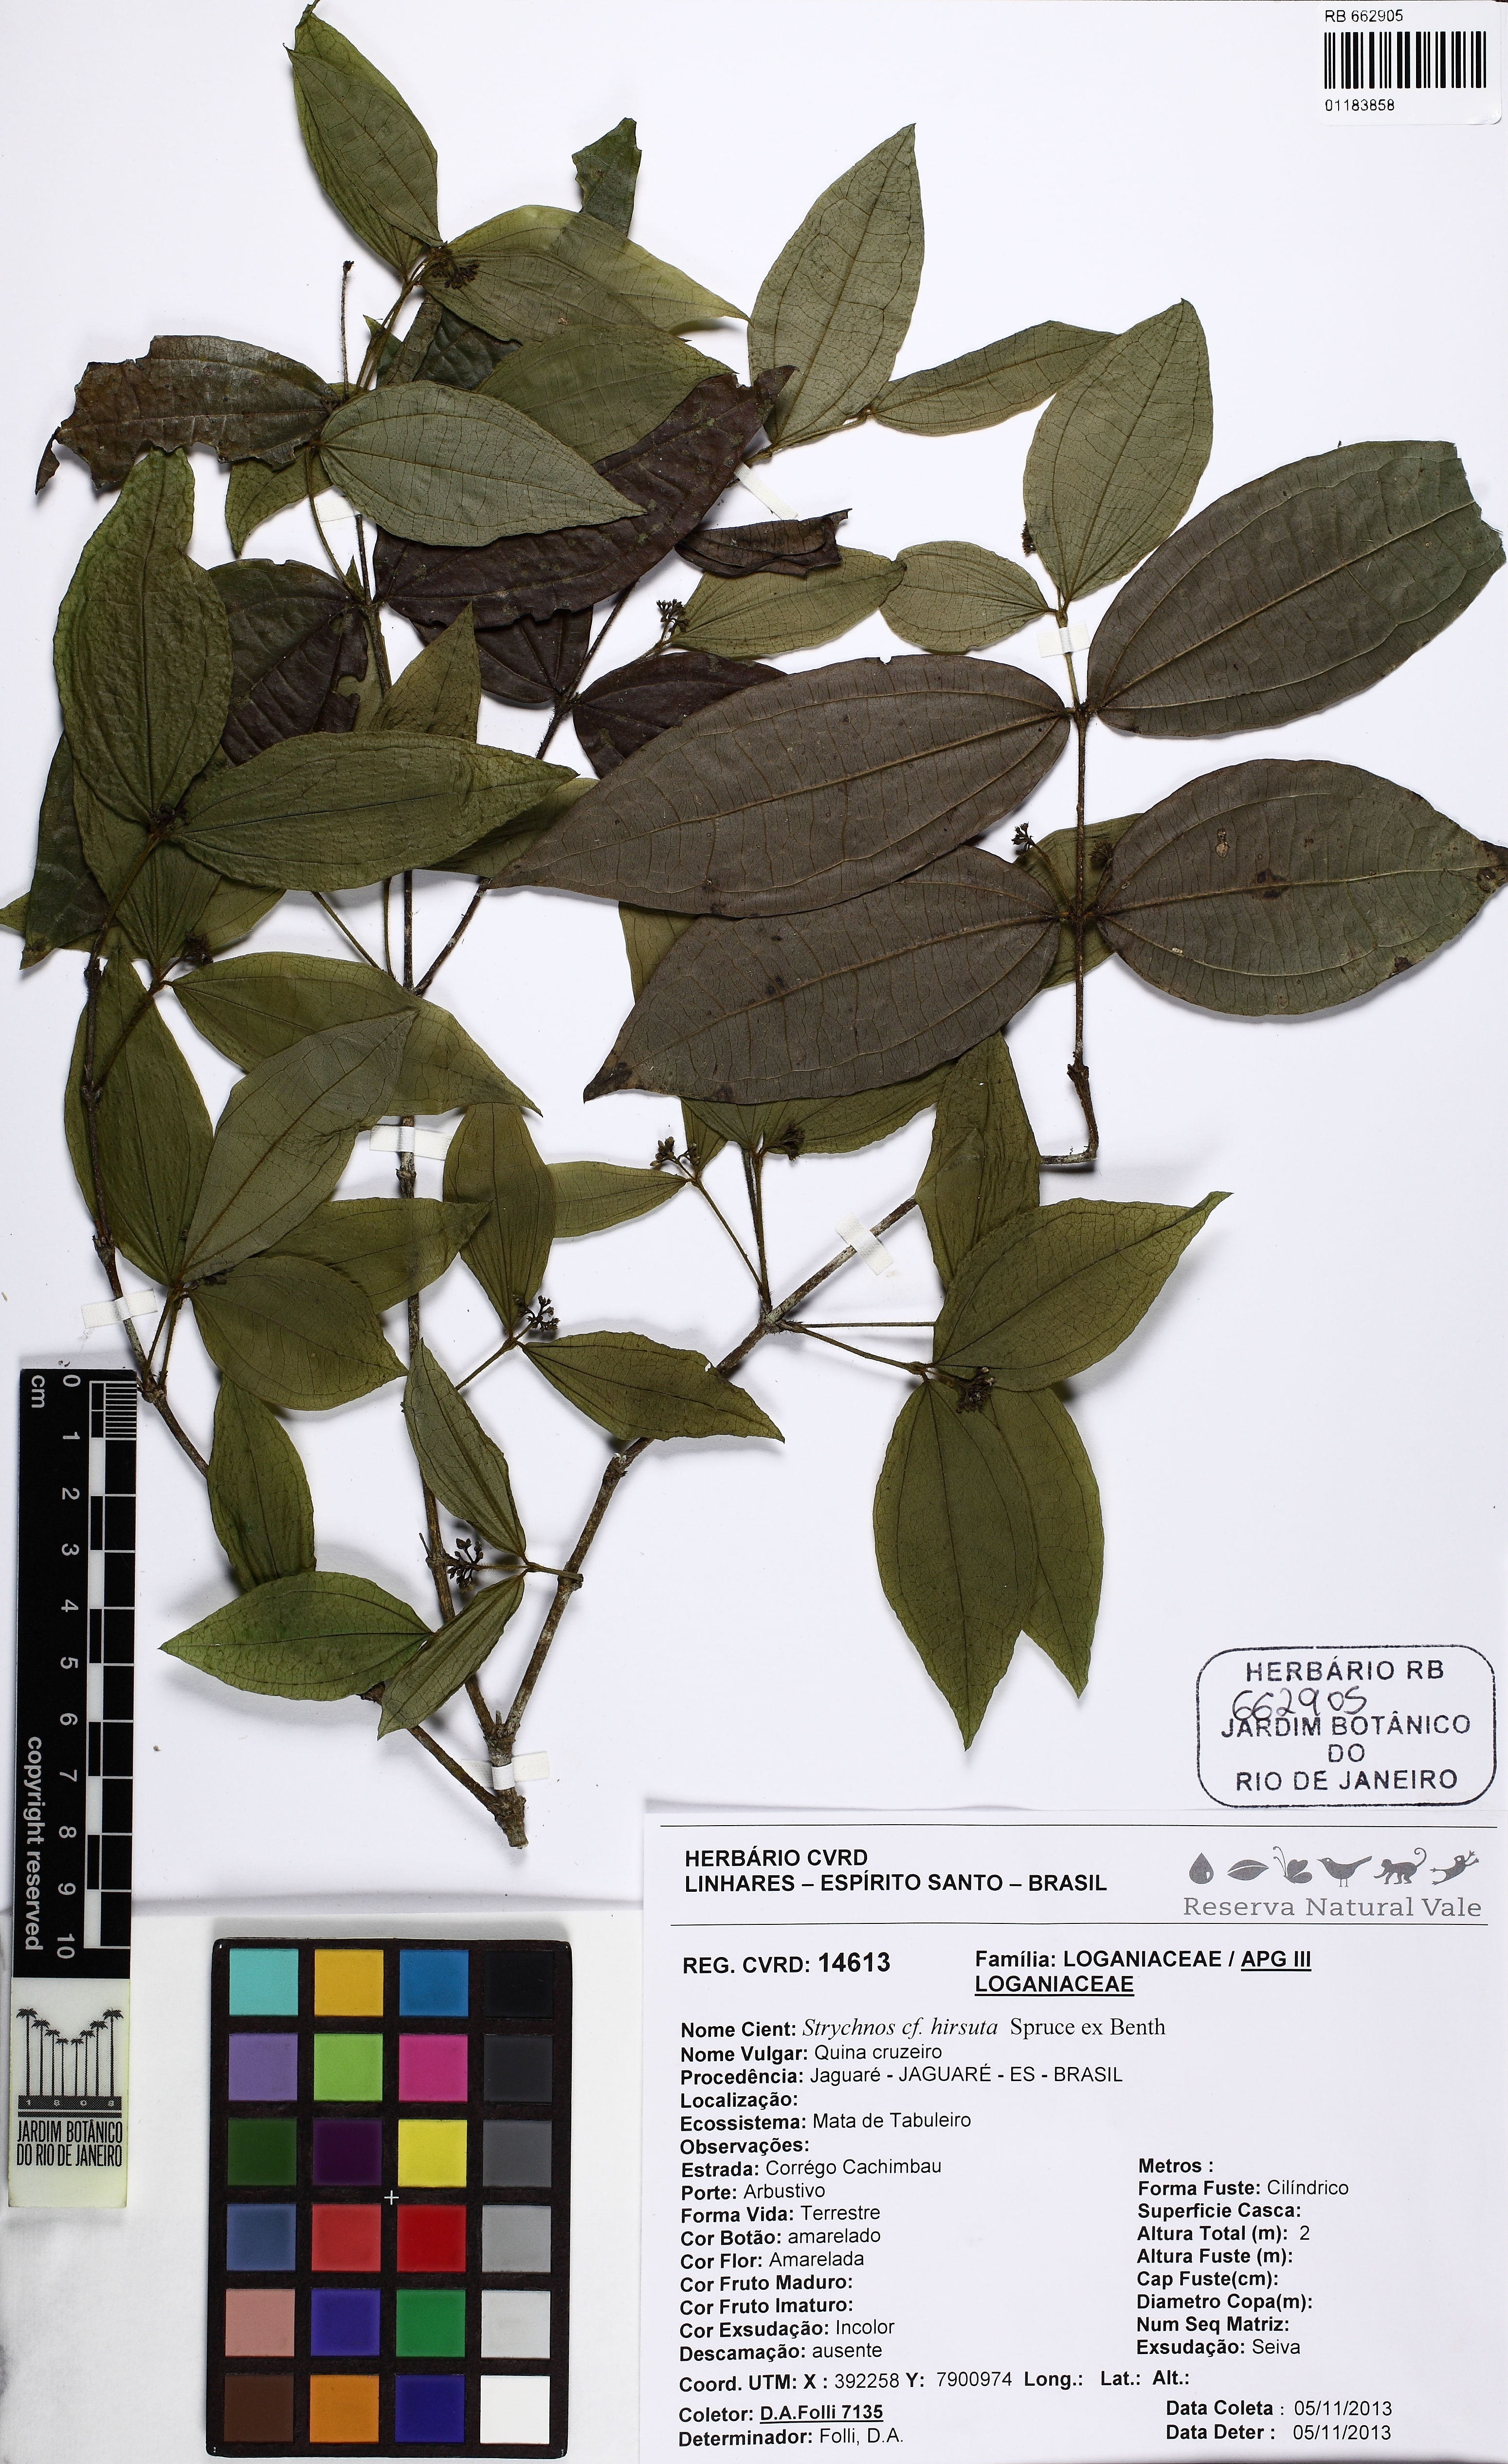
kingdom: Plantae
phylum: Tracheophyta
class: Magnoliopsida
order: Gentianales
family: Loganiaceae
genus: Strychnos
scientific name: Strychnos setosa
